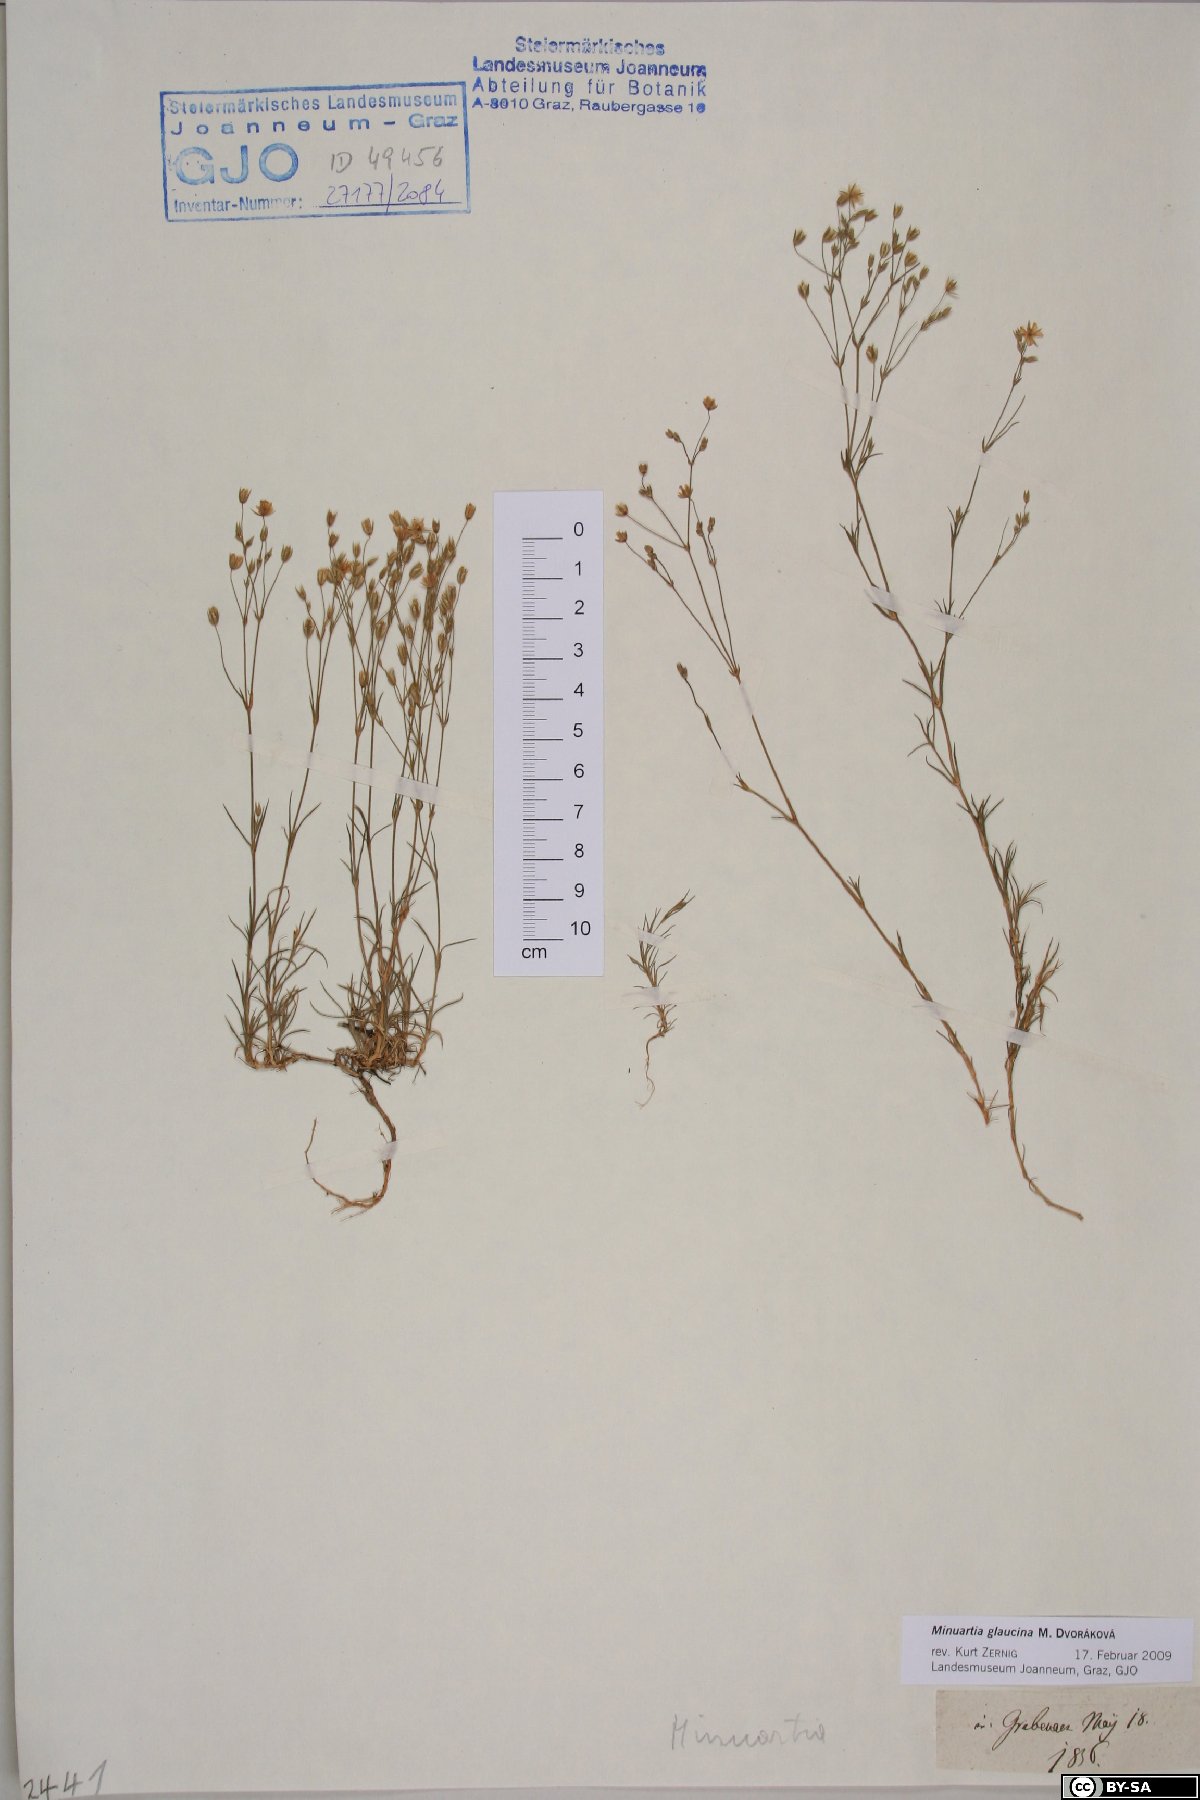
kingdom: Plantae
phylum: Tracheophyta
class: Magnoliopsida
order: Caryophyllales
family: Caryophyllaceae
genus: Sabulina
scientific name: Sabulina glaucina
